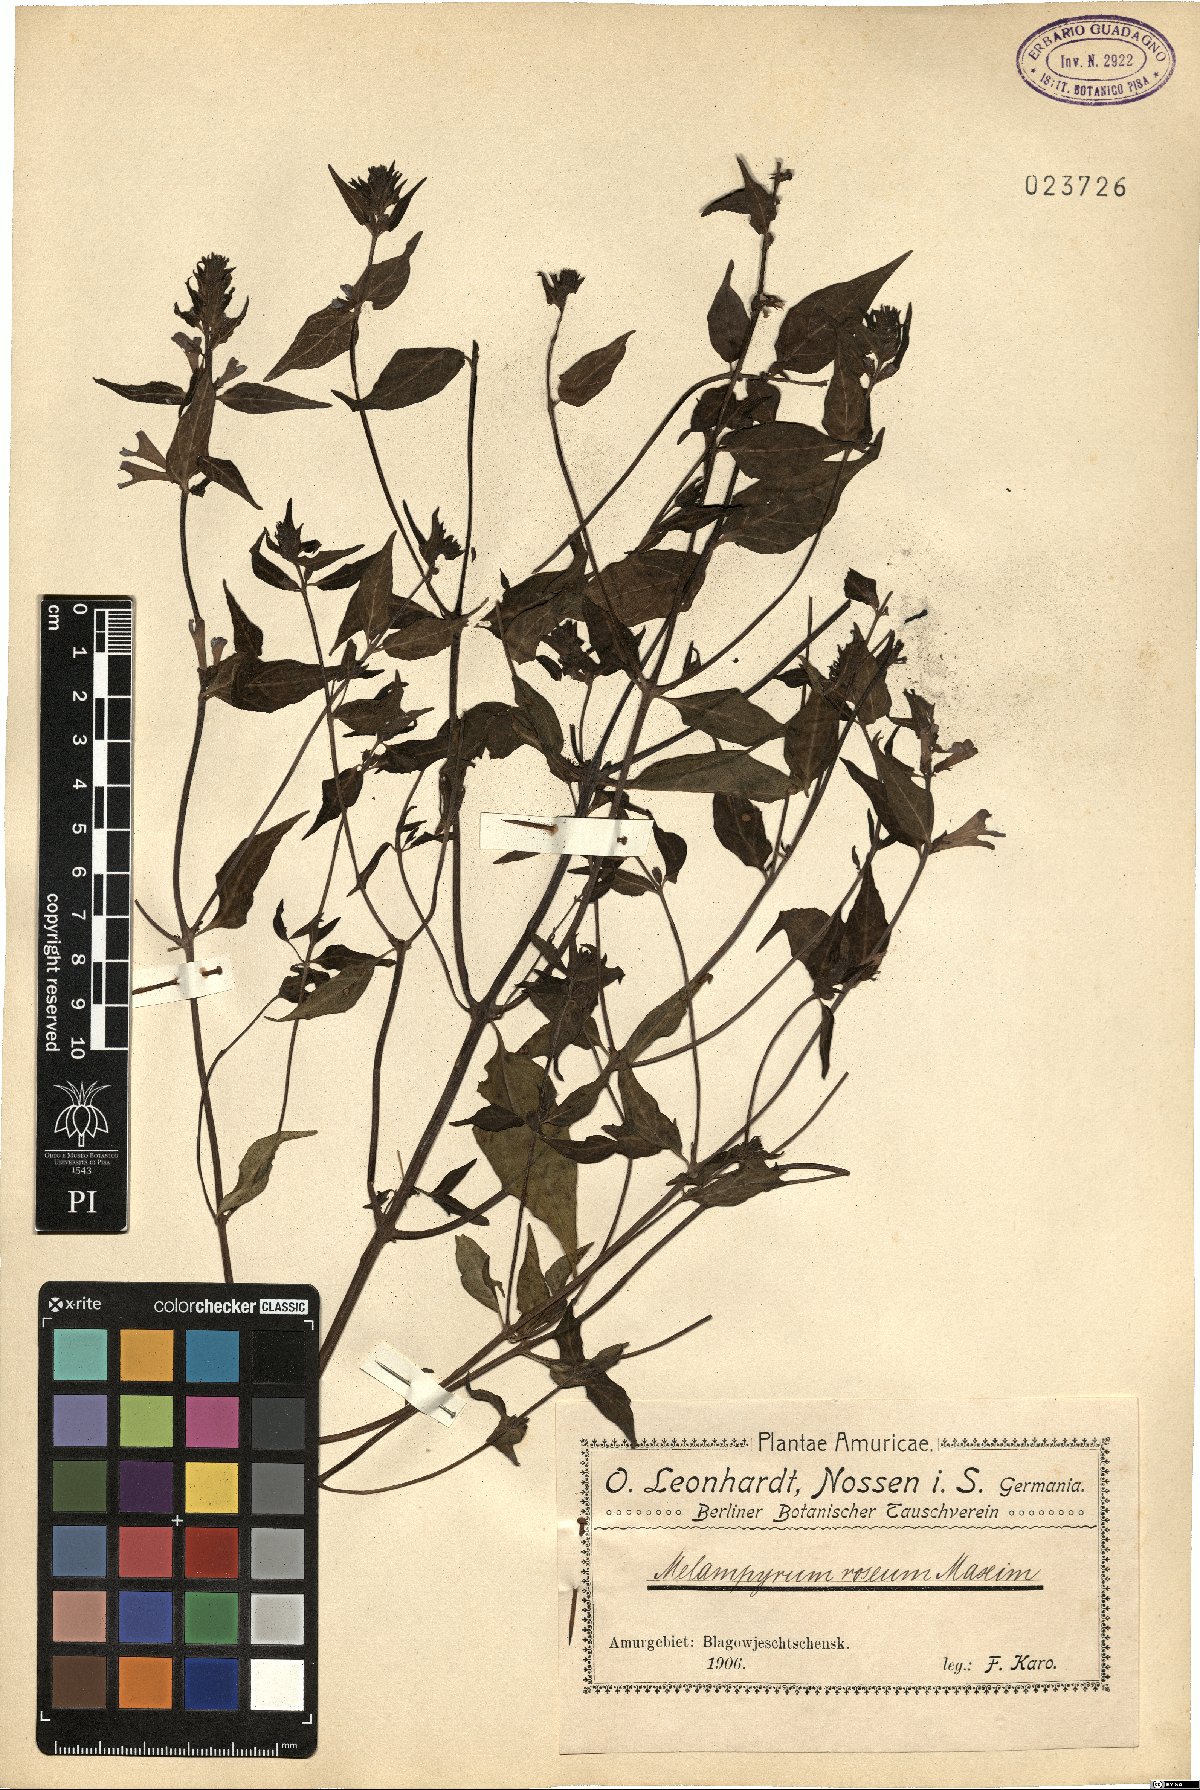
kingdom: Plantae
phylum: Tracheophyta
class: Magnoliopsida
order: Lamiales
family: Orobanchaceae
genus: Melampyrum
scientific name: Melampyrum roseum
